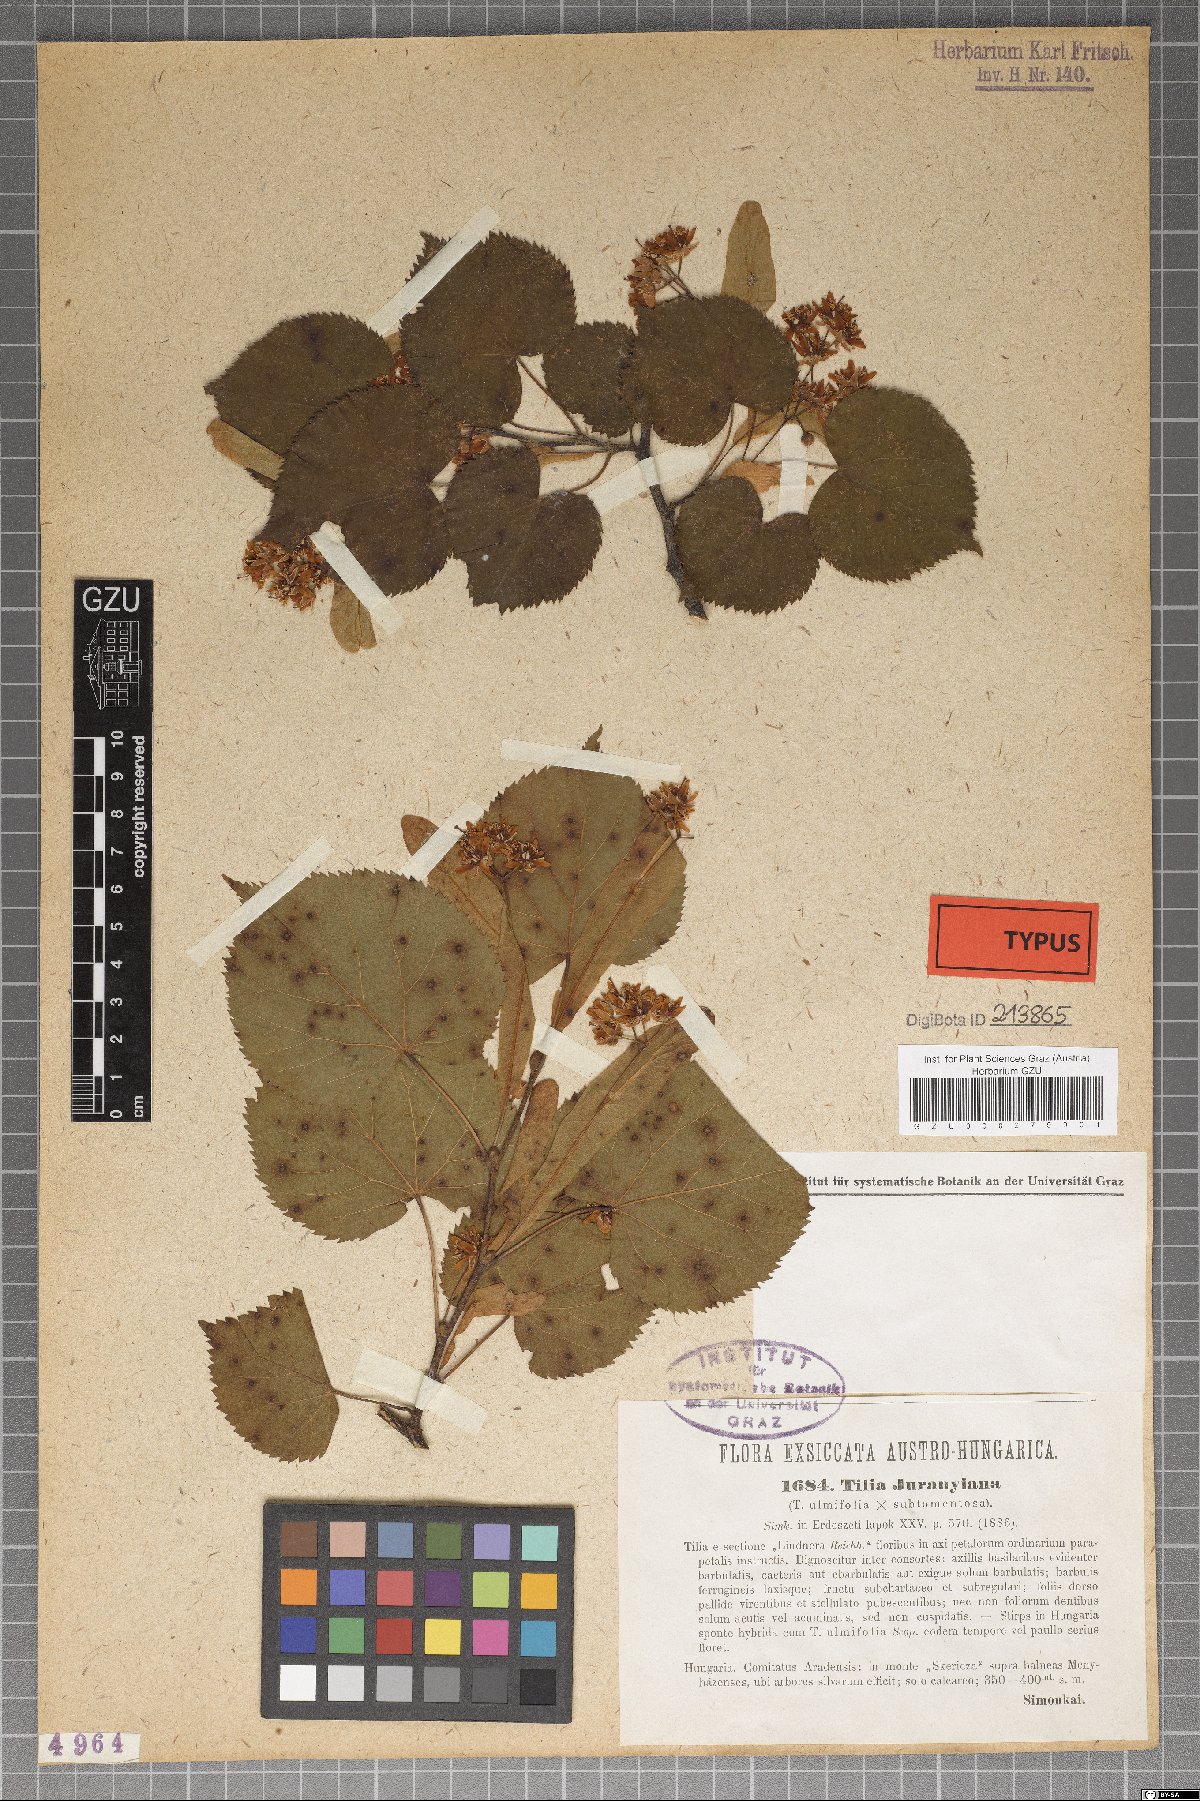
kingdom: Plantae
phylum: Tracheophyta
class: Magnoliopsida
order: Malvales
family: Malvaceae
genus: Tilia
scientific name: Tilia juranyiana
